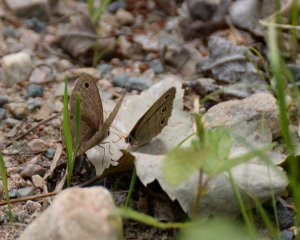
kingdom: Animalia
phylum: Arthropoda
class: Insecta
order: Lepidoptera
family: Nymphalidae
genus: Euptychia
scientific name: Euptychia cymela
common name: Little Wood Satyr
